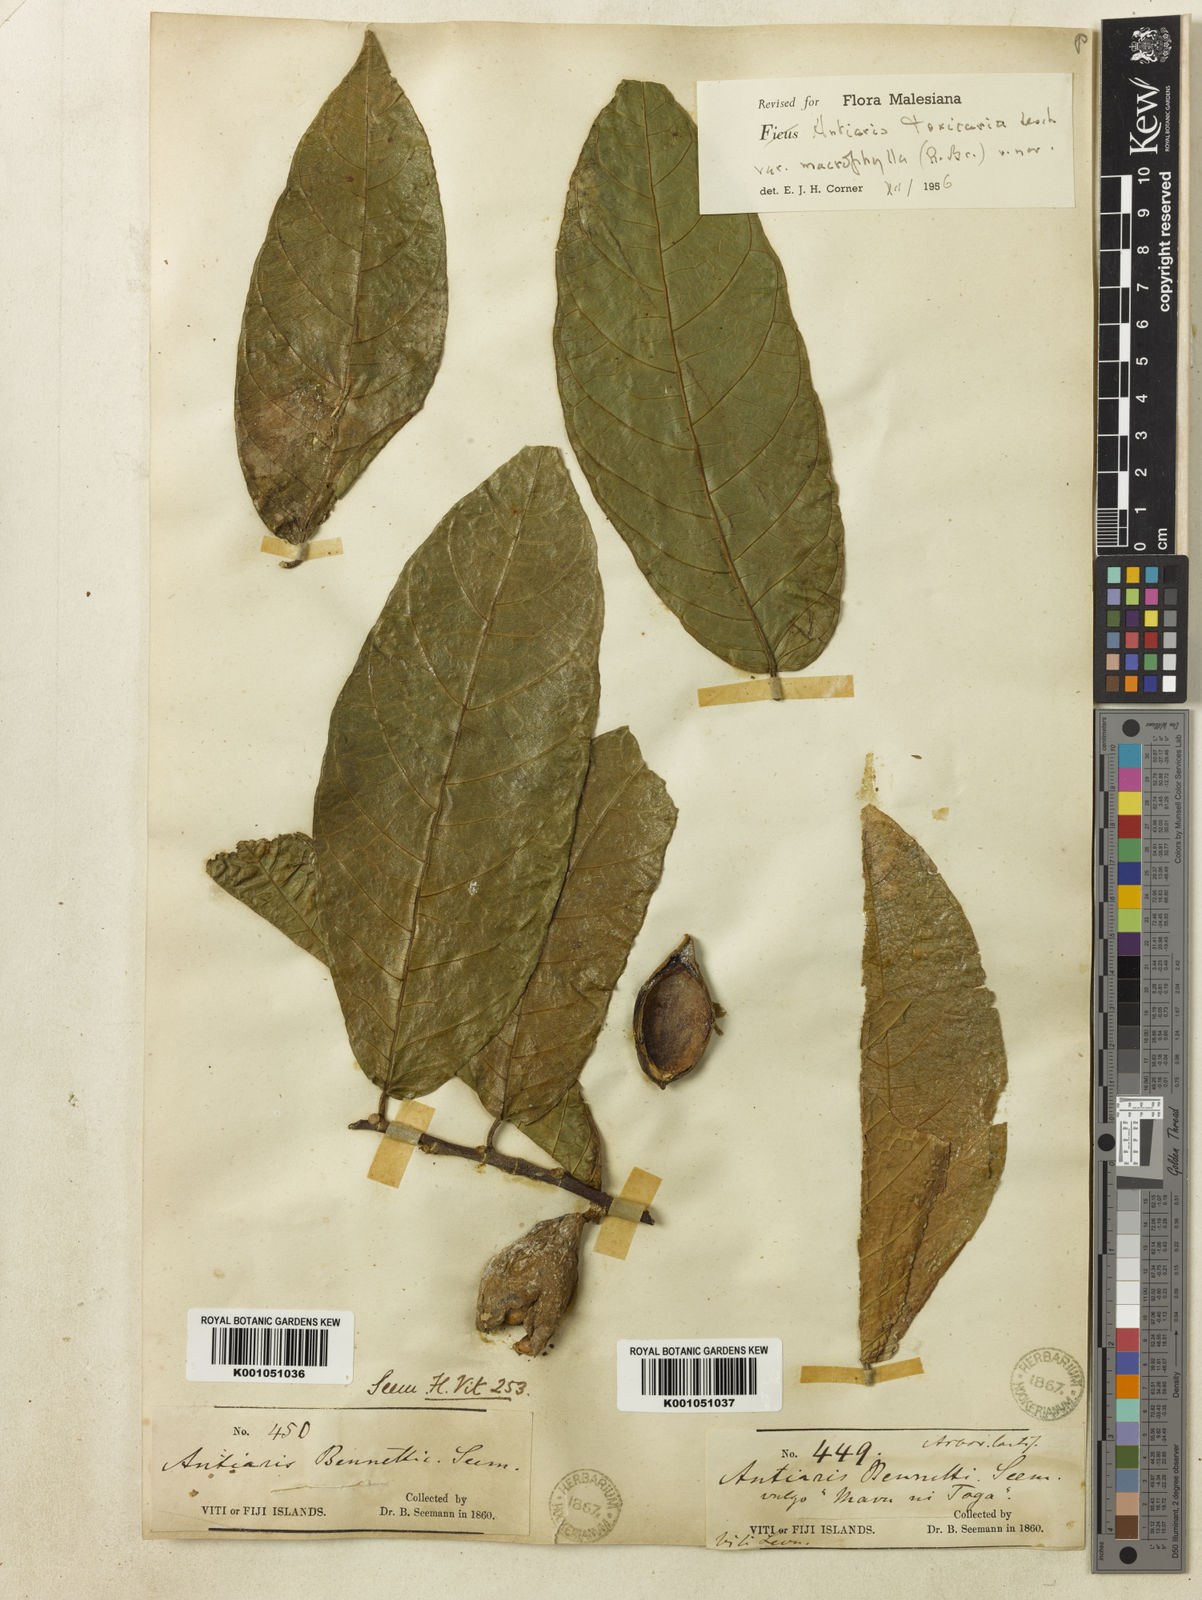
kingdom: Plantae
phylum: Tracheophyta
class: Magnoliopsida
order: Rosales
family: Moraceae
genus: Antiaris
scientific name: Antiaris toxicaria
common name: Sackingtree
